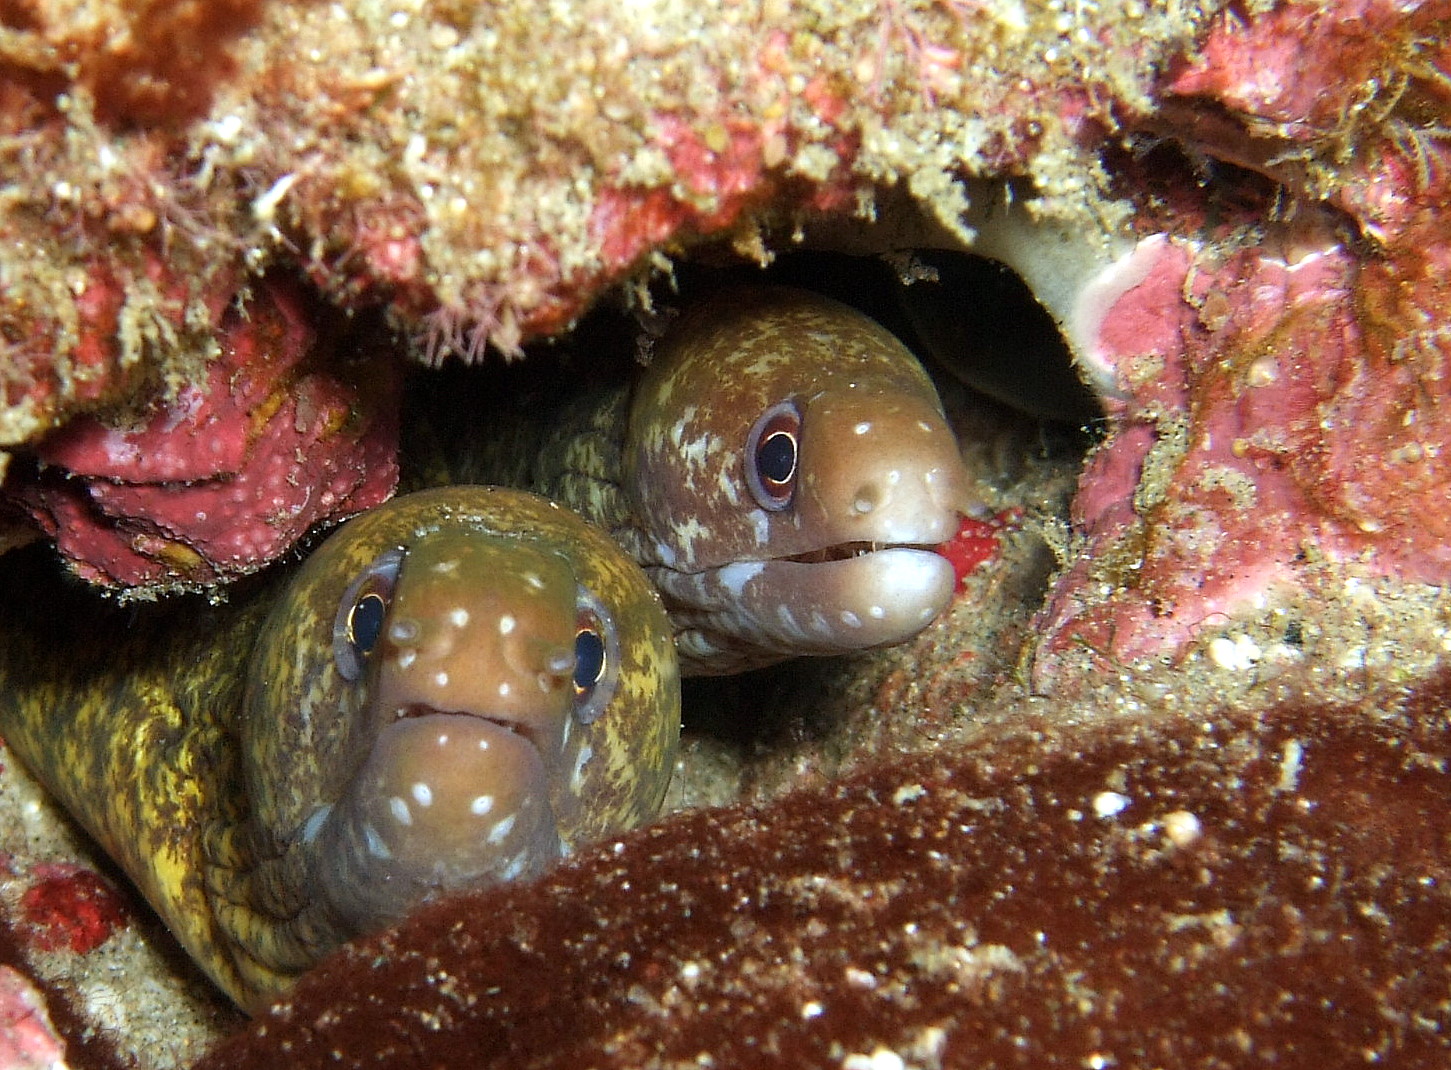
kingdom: Animalia
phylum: Chordata
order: Anguilliformes
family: Muraenidae
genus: Gymnothorax
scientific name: Gymnothorax chilospilus
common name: Lipspot moray
